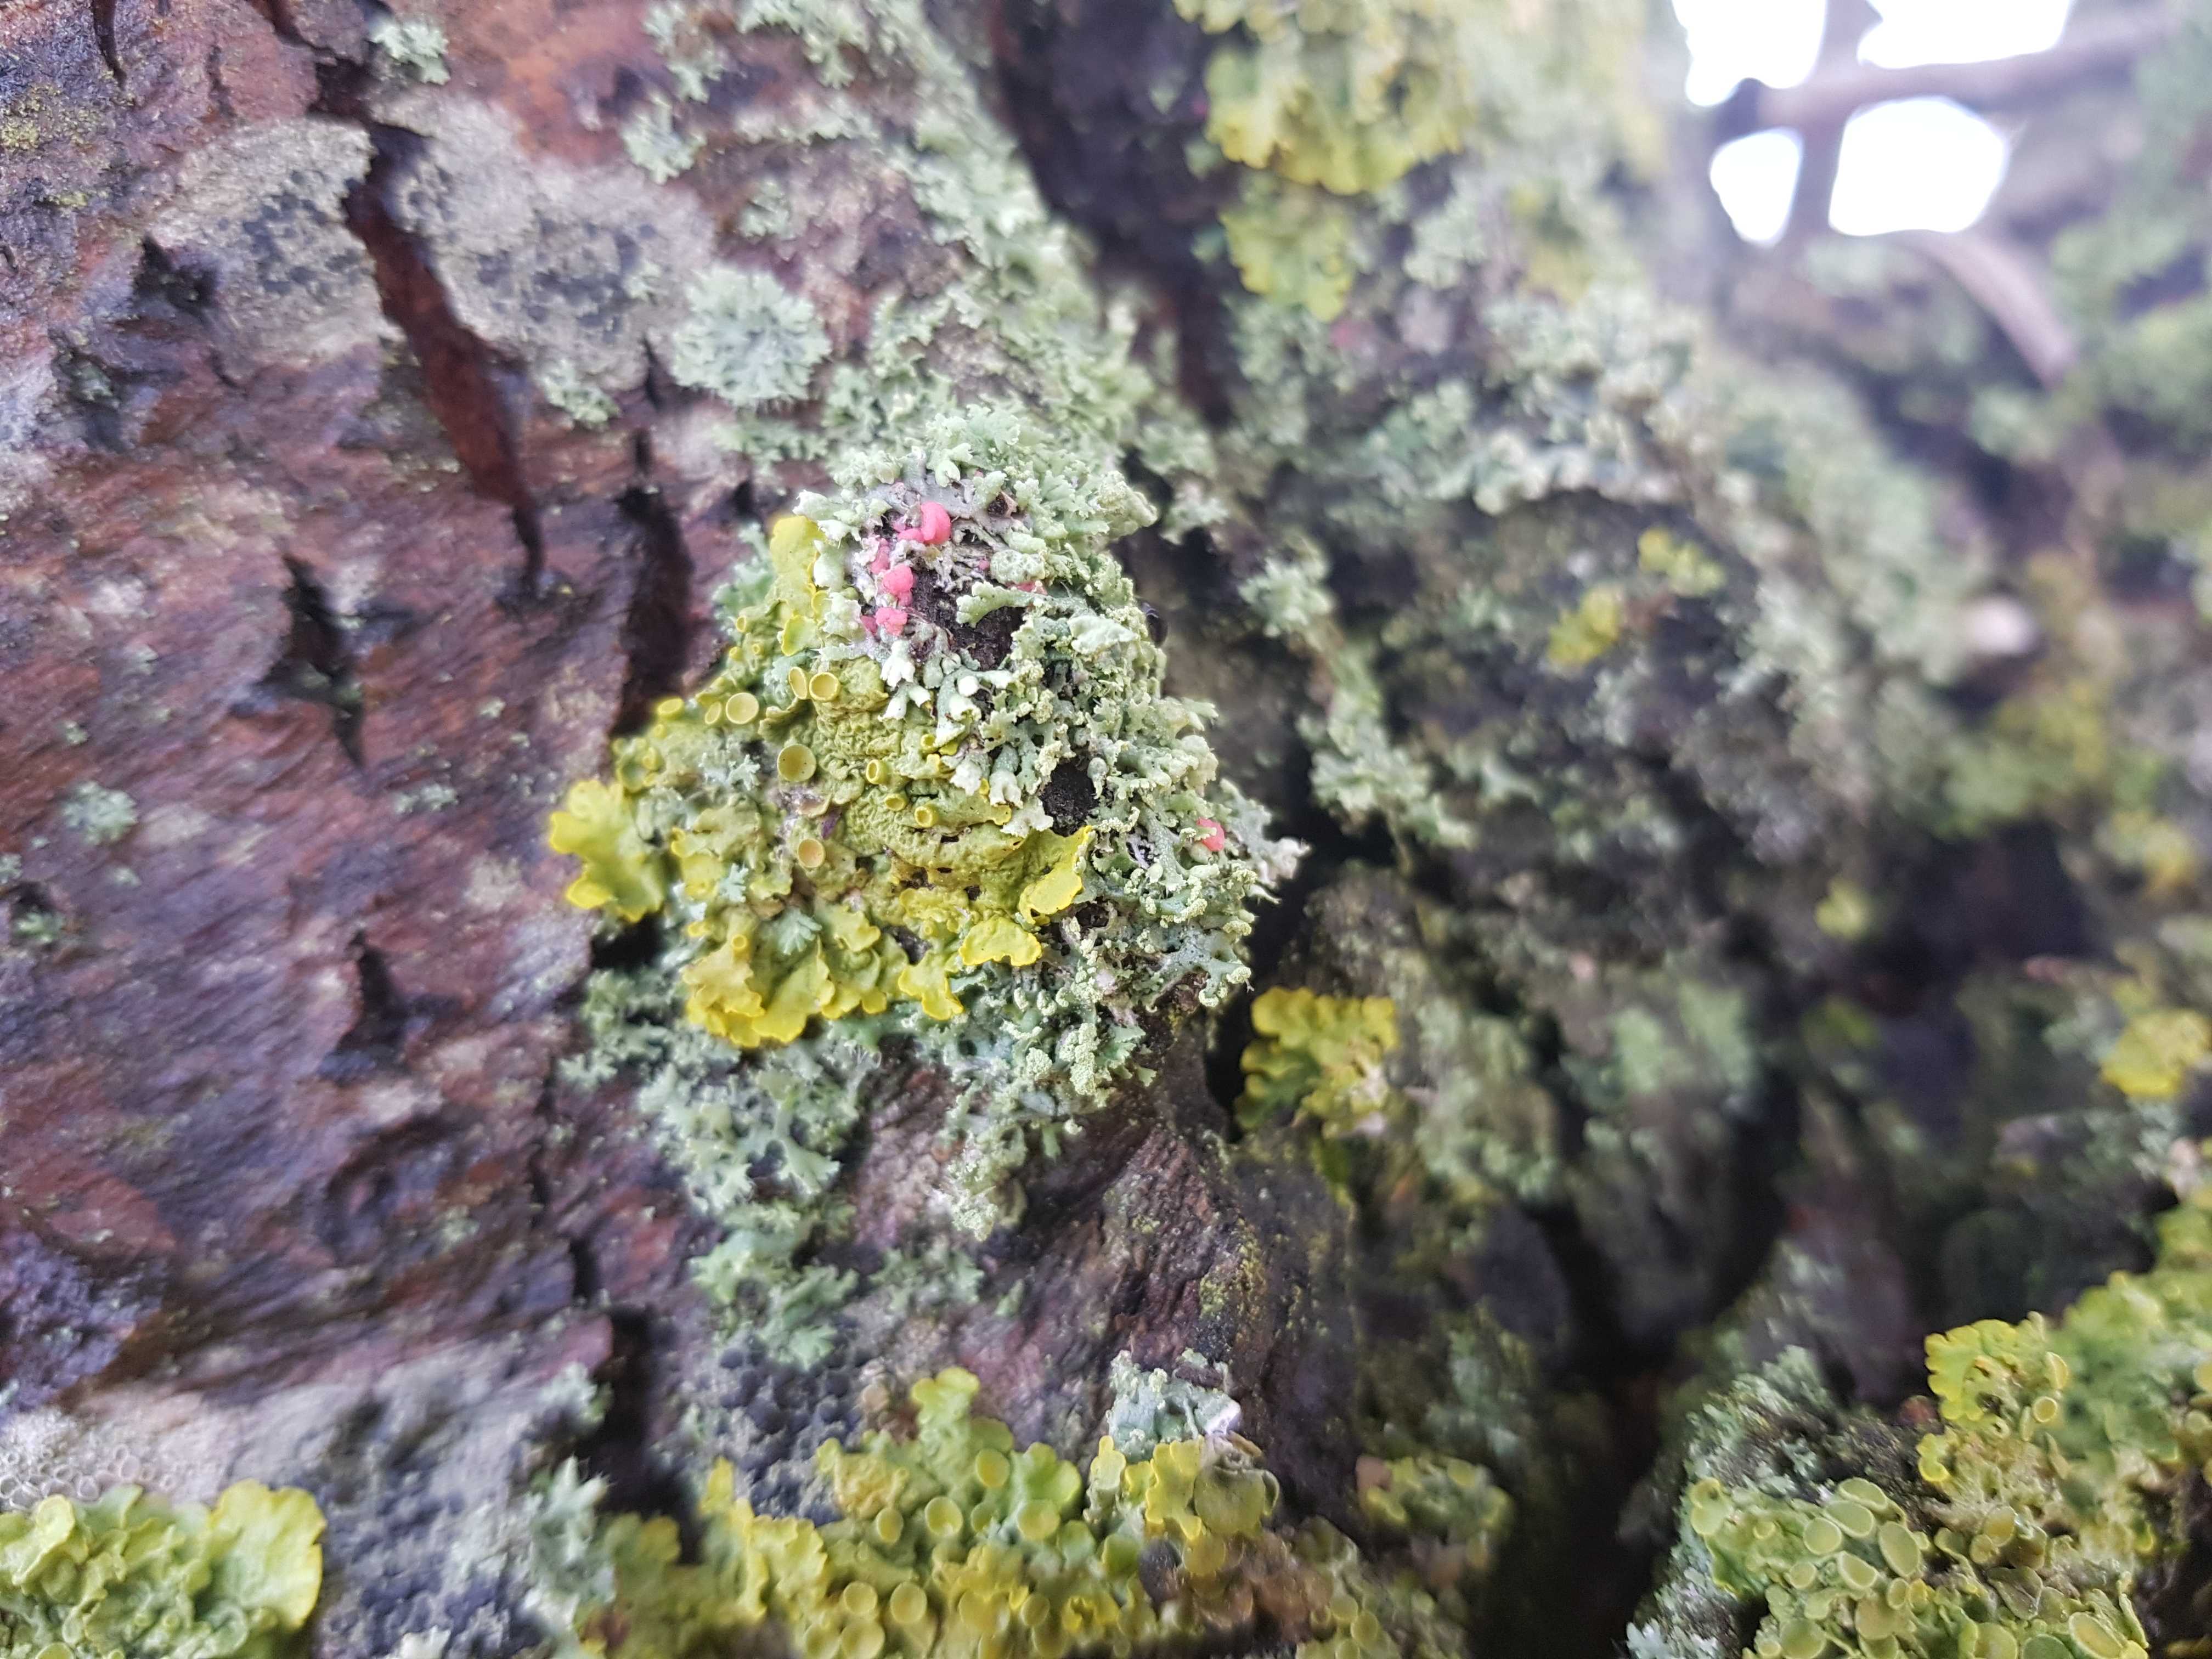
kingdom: Fungi
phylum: Ascomycota
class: Sordariomycetes
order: Hypocreales
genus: Illosporiopsis
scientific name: Illosporiopsis christiansenii
